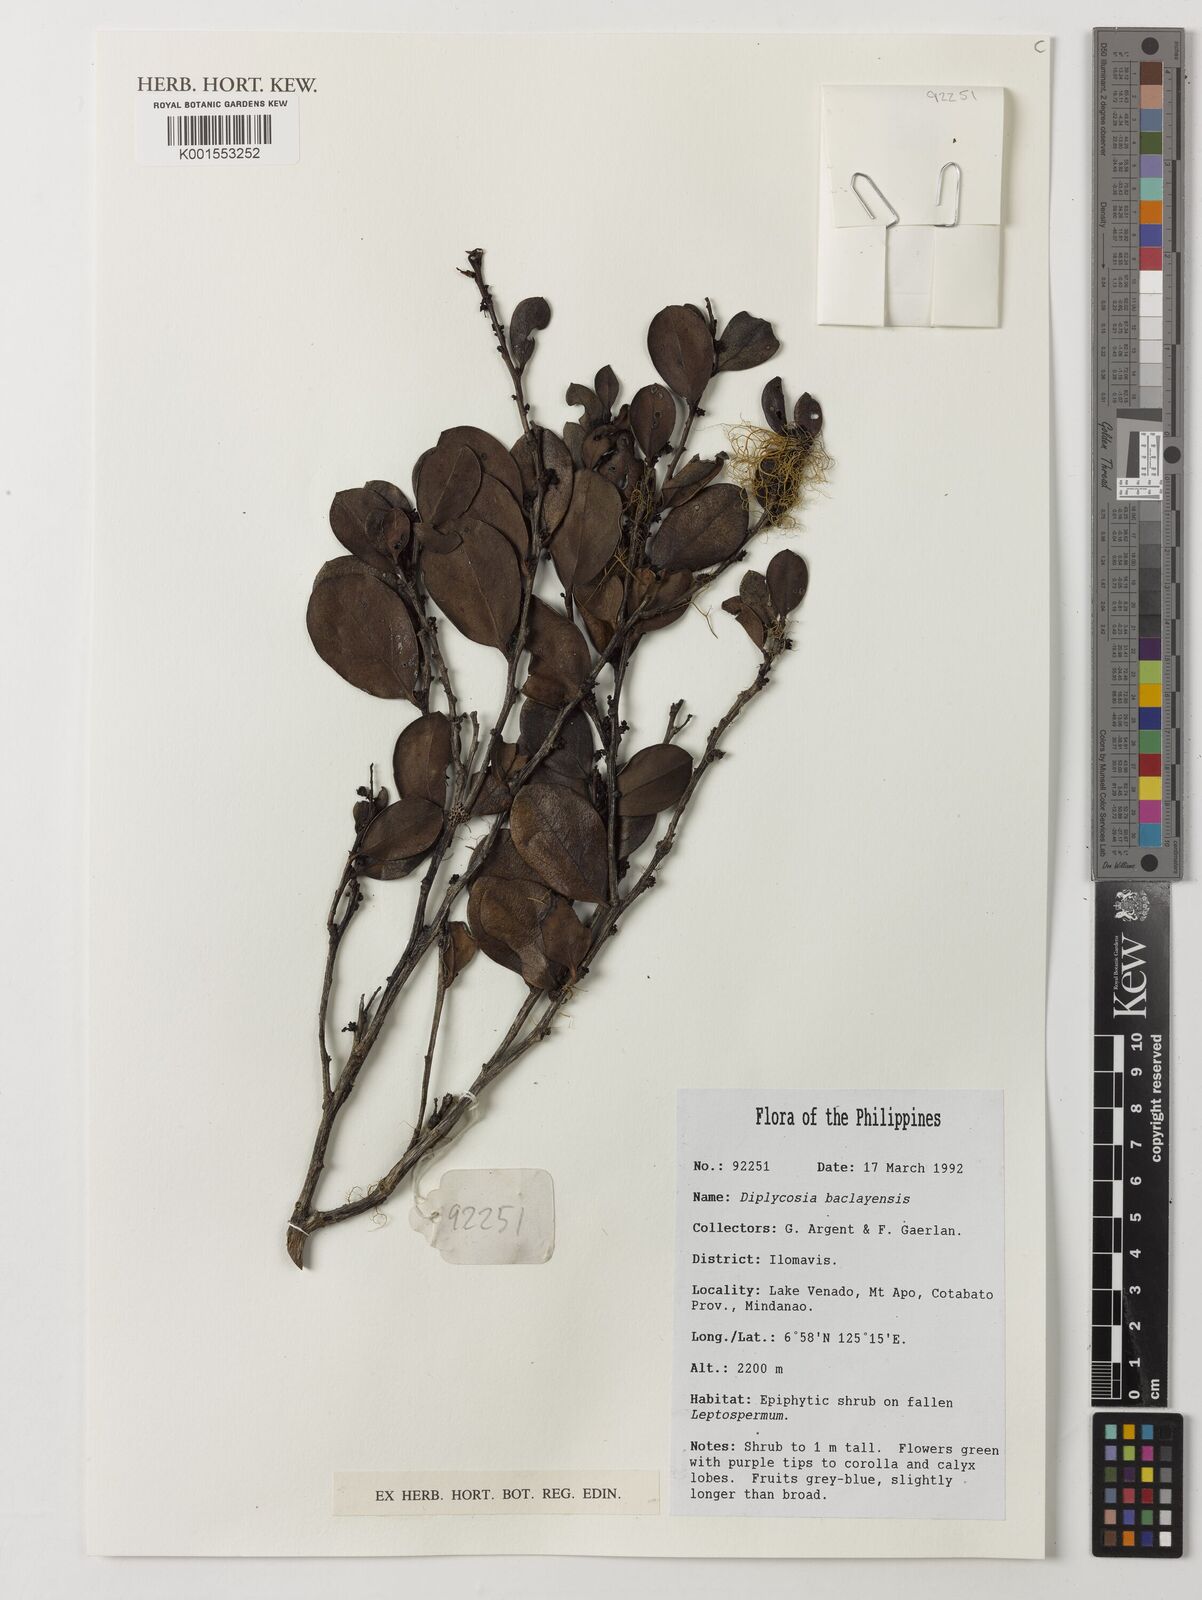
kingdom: Plantae
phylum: Tracheophyta
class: Magnoliopsida
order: Ericales
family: Ericaceae
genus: Gaultheria
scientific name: Gaultheria heterophylla
